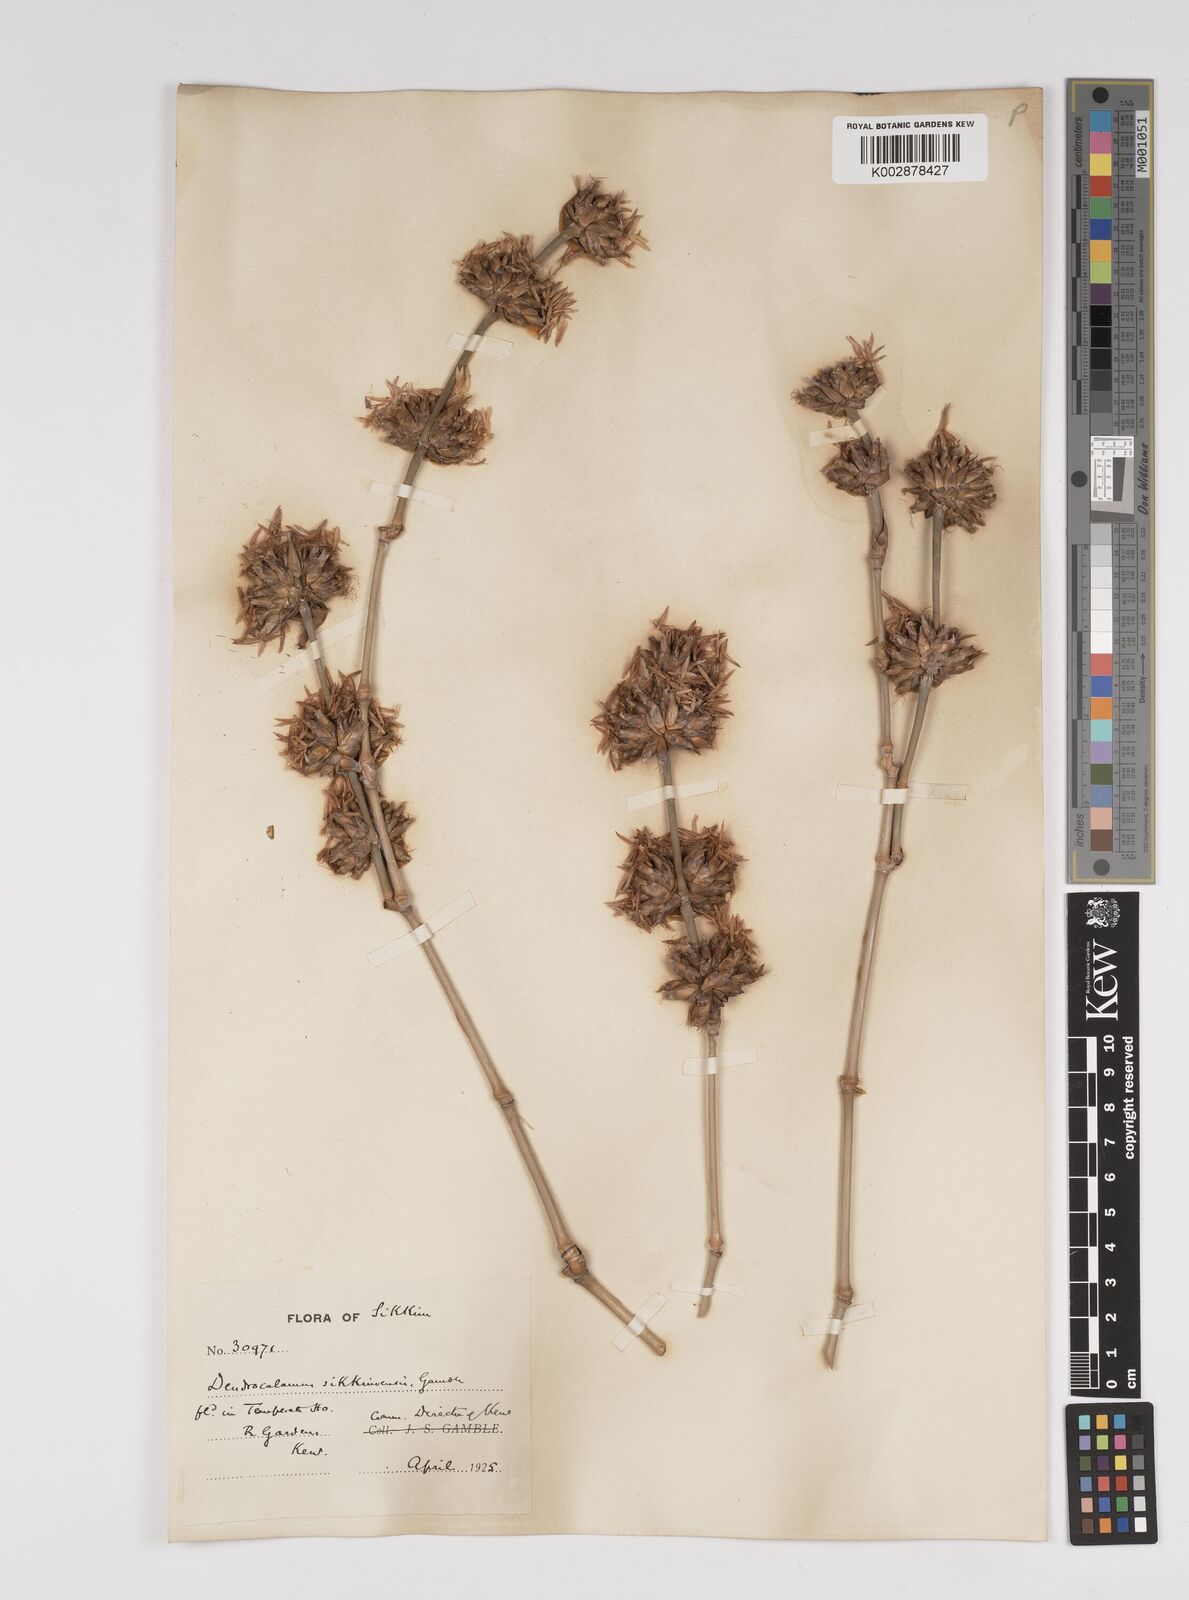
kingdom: Plantae
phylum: Tracheophyta
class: Liliopsida
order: Poales
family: Poaceae
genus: Dendrocalamus
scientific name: Dendrocalamus sikkimensis
